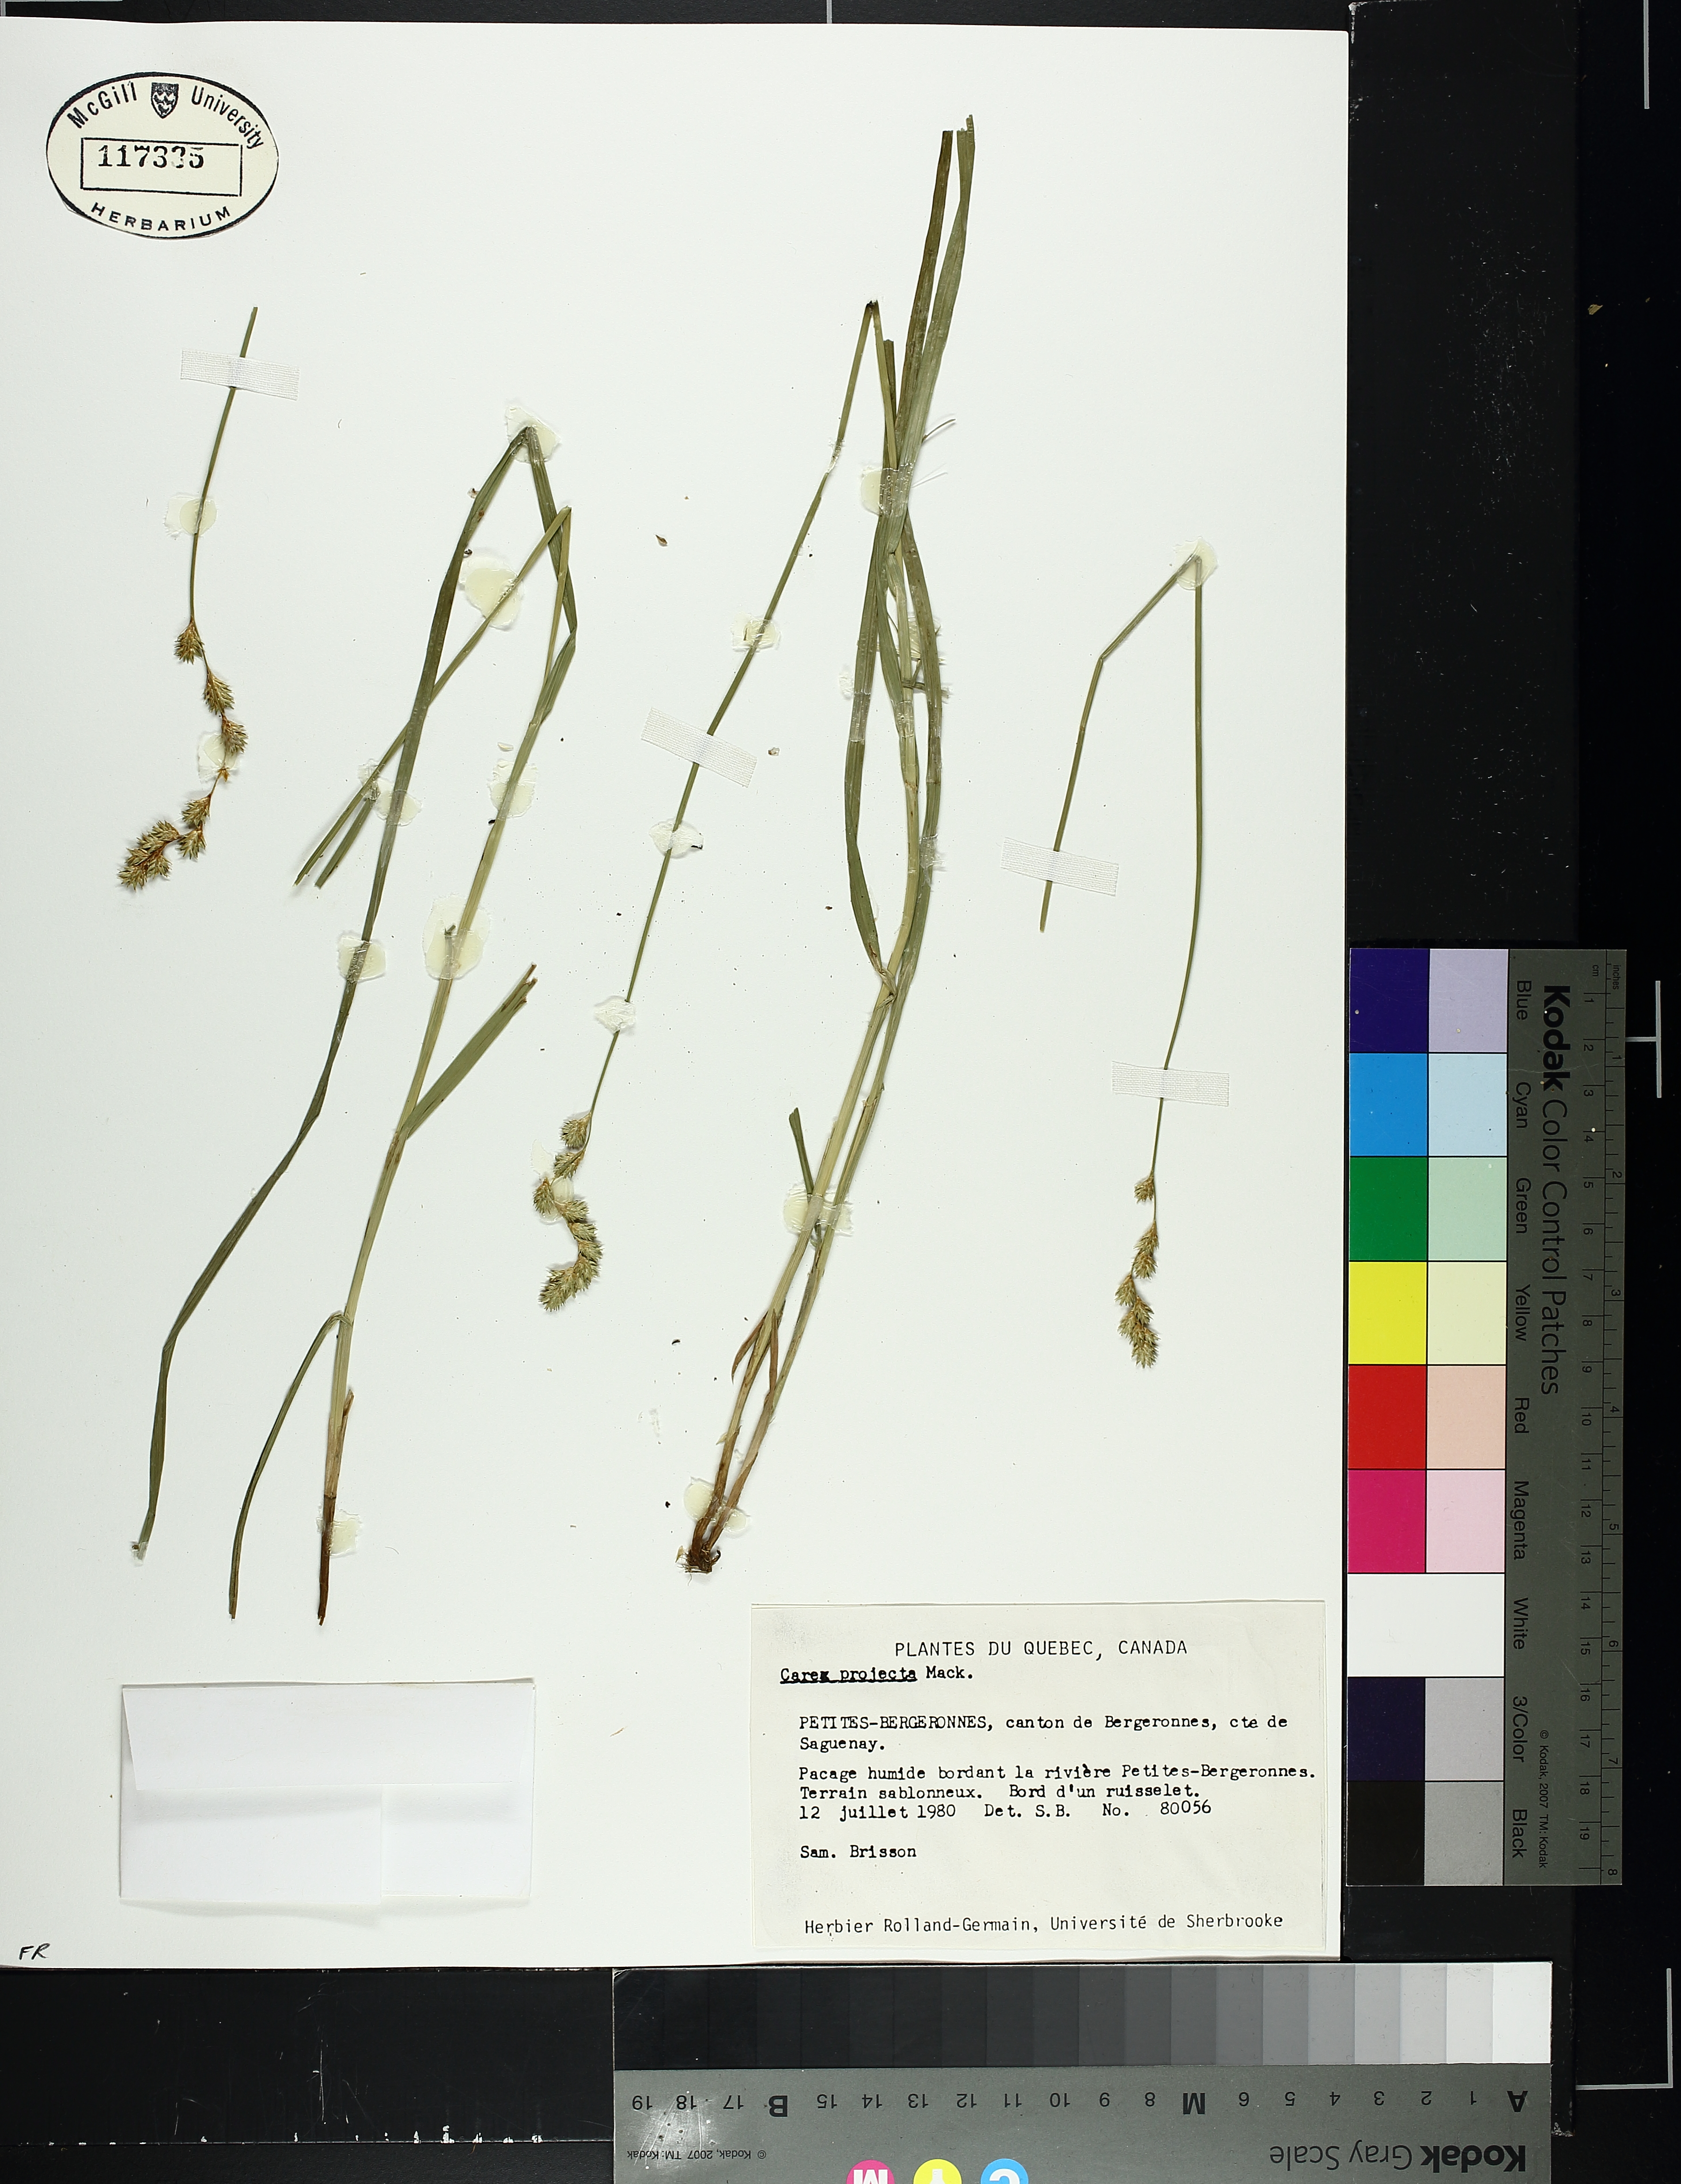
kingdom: Plantae
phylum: Tracheophyta
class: Liliopsida
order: Poales
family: Cyperaceae
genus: Carex
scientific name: Carex projecta
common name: Loose-headed oval sedge
